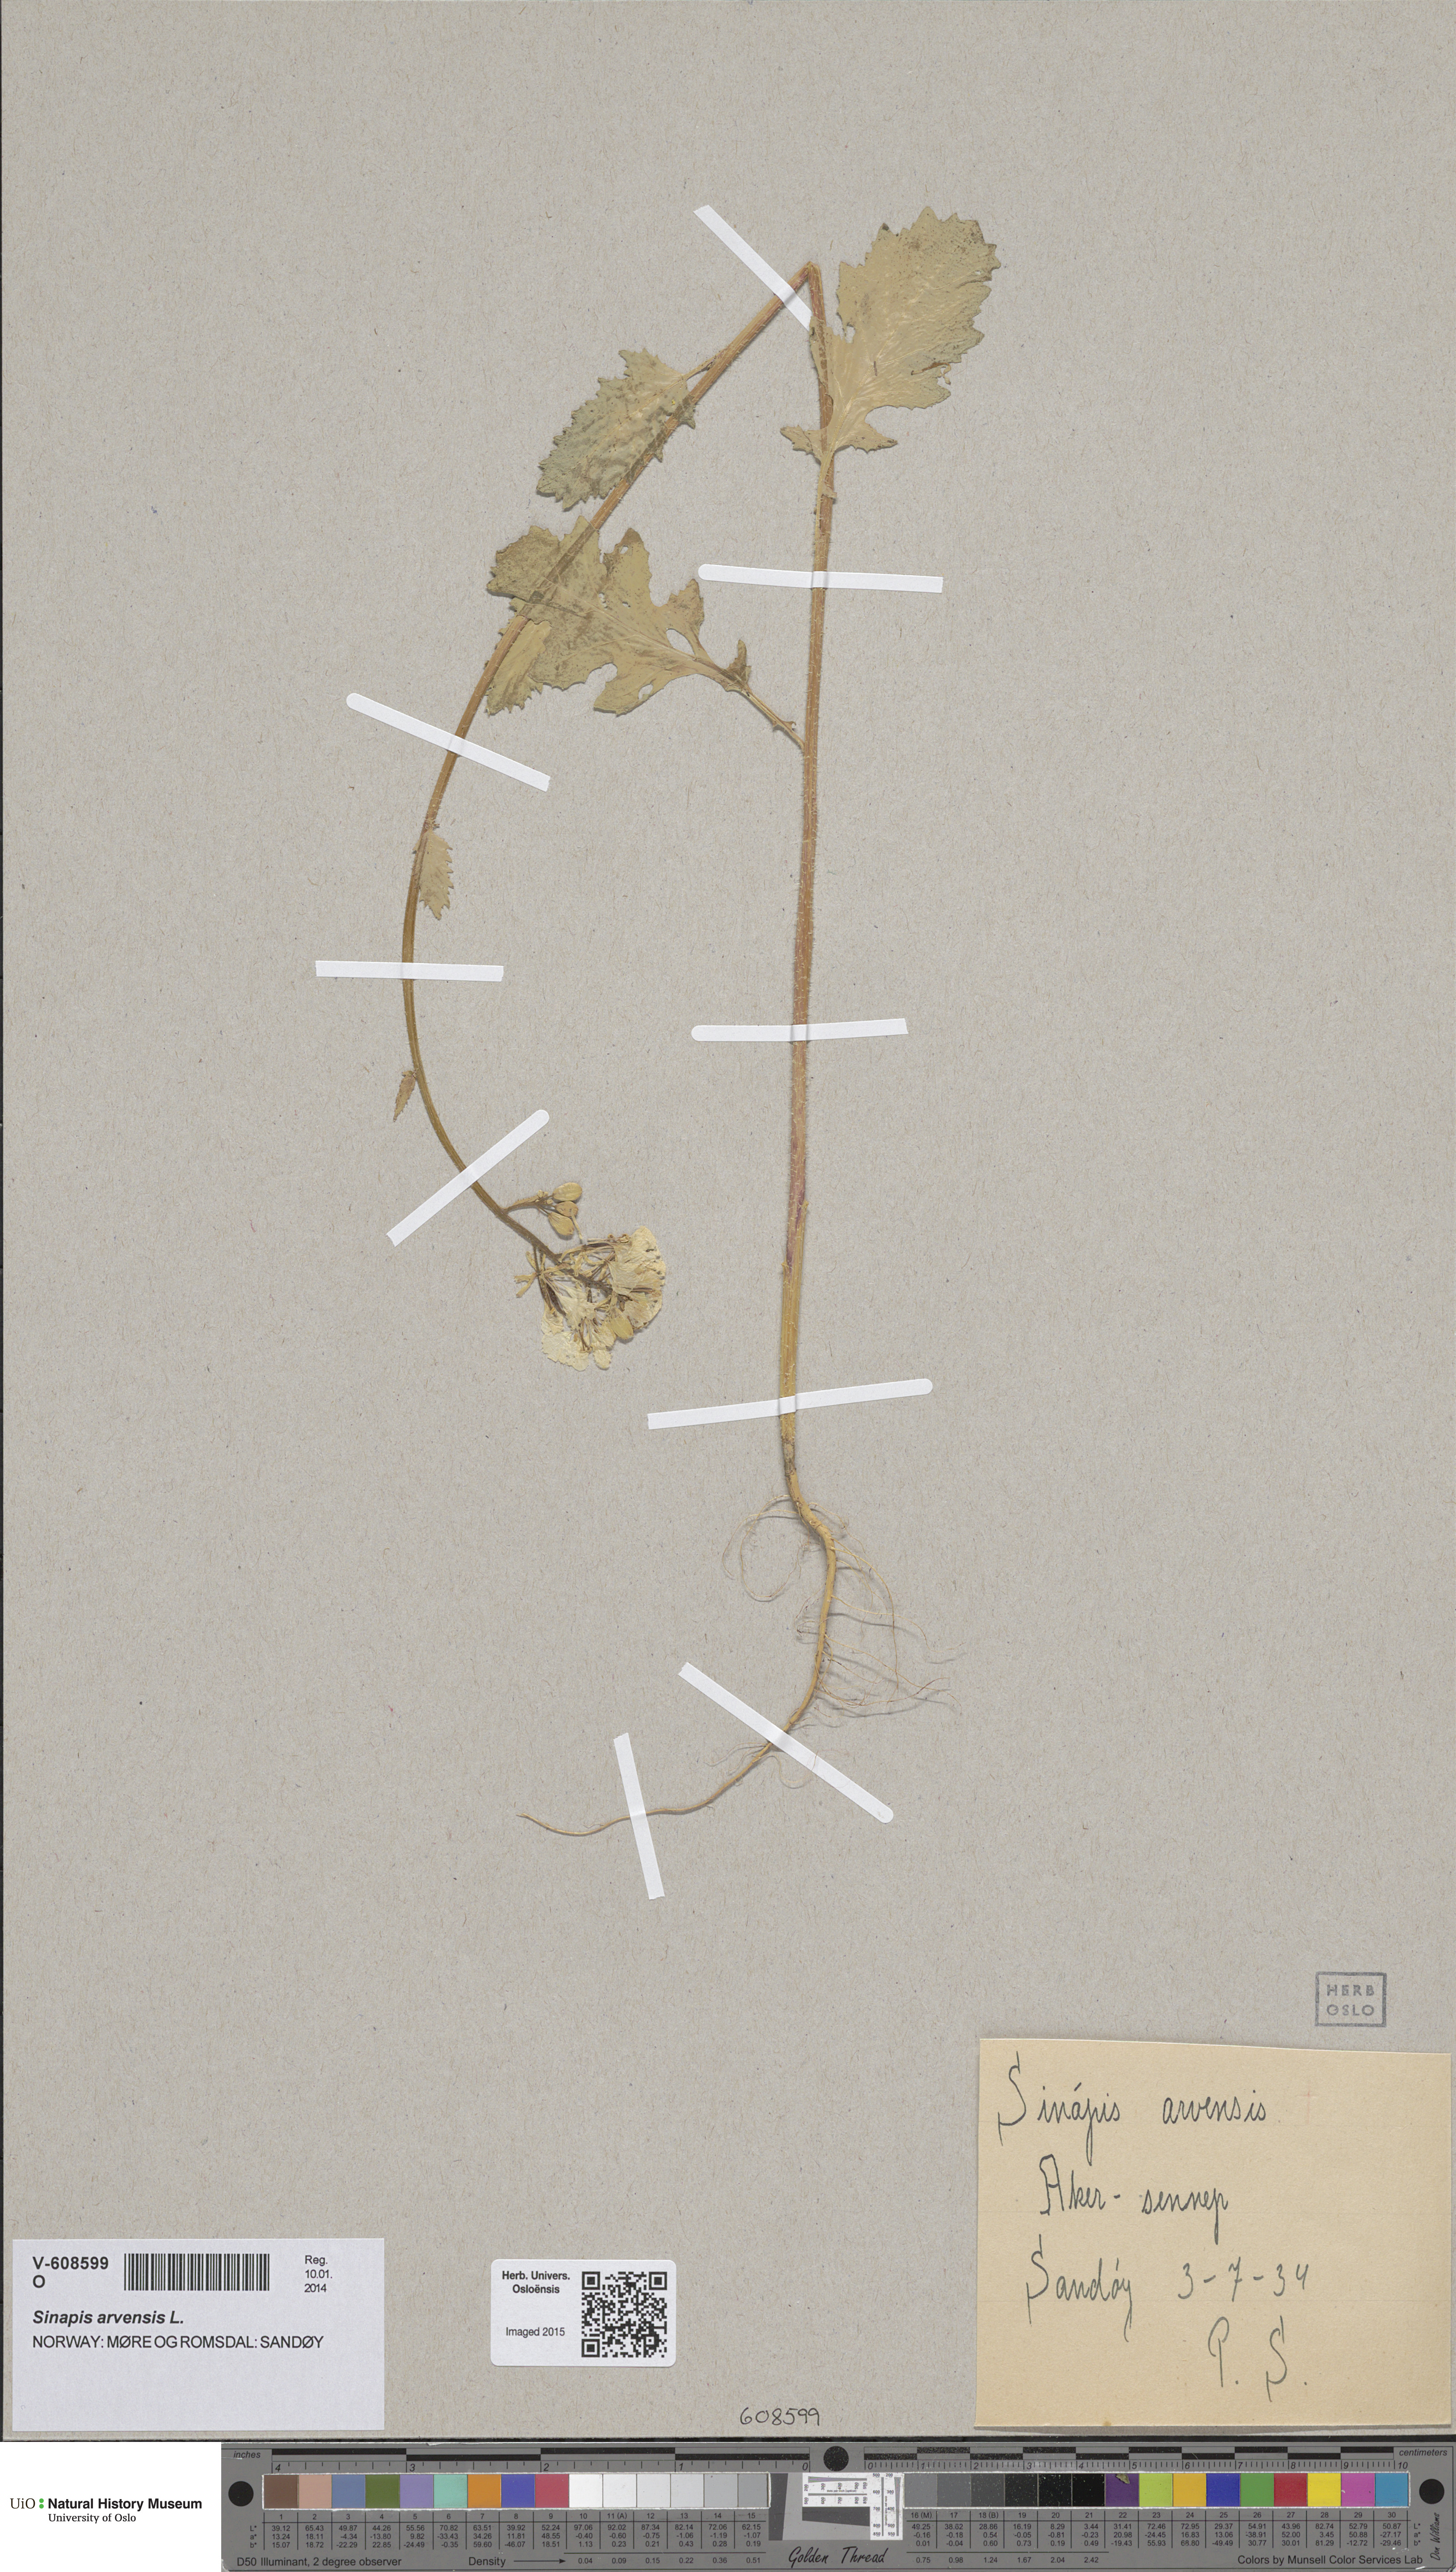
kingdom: Plantae
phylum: Tracheophyta
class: Magnoliopsida
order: Brassicales
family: Brassicaceae
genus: Sinapis
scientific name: Sinapis arvensis
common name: Charlock
